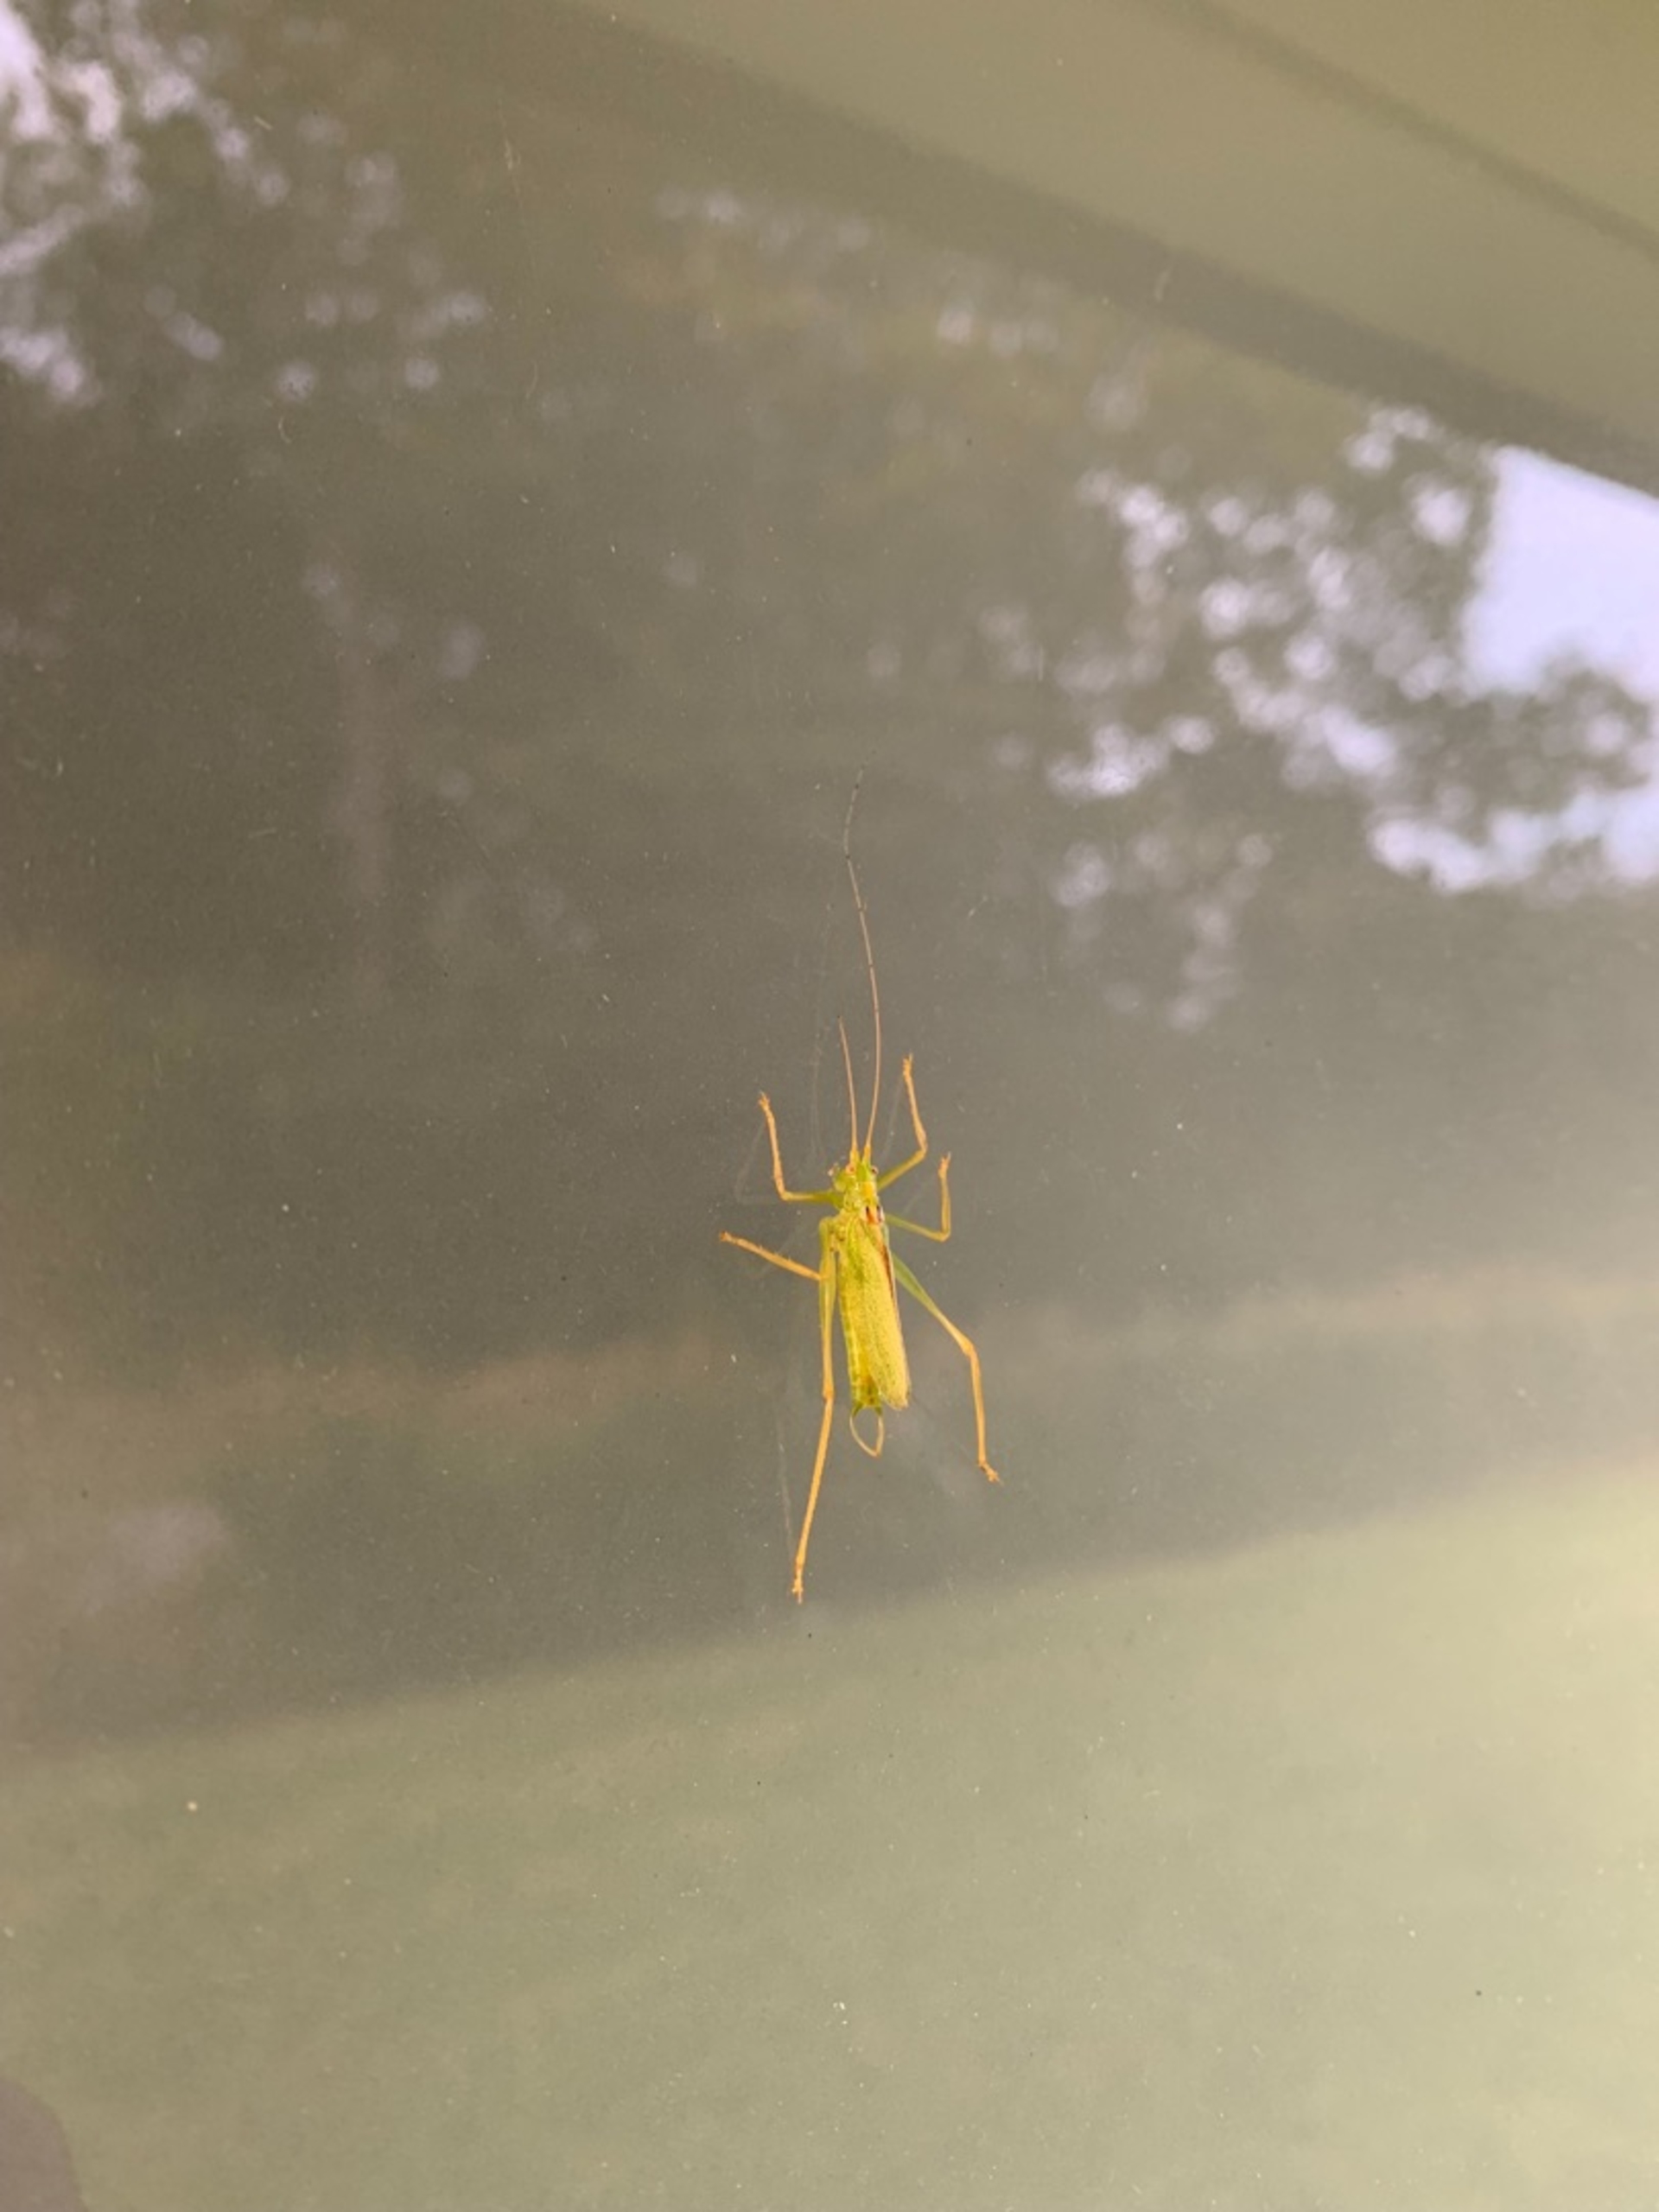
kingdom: Animalia
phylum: Arthropoda
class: Insecta
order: Orthoptera
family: Tettigoniidae
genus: Meconema
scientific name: Meconema thalassinum
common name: Egegræshoppe
